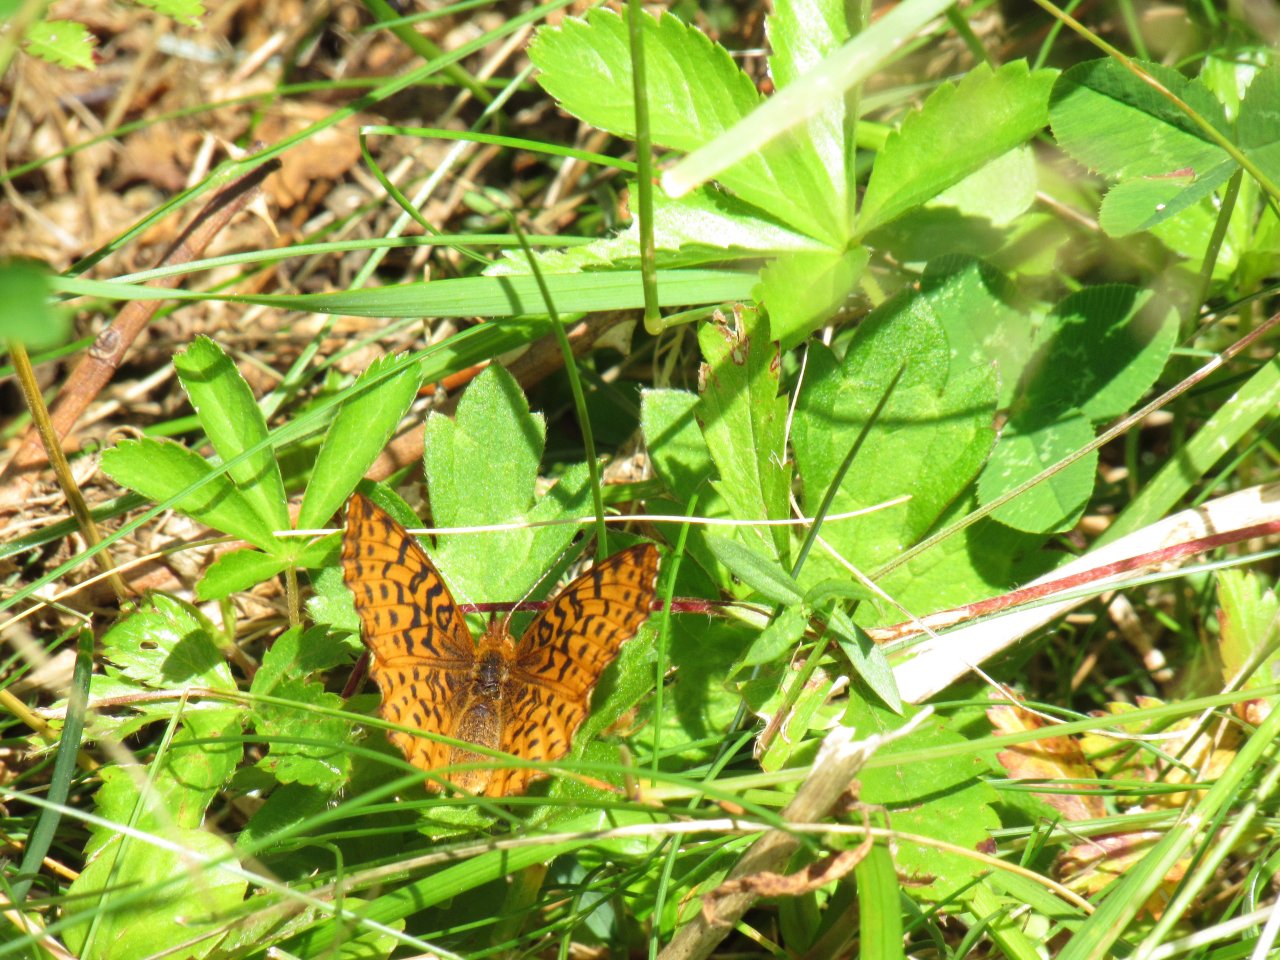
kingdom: Animalia
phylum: Arthropoda
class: Insecta
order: Lepidoptera
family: Nymphalidae
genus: Clossiana
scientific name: Clossiana toddi
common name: Meadow Fritillary
